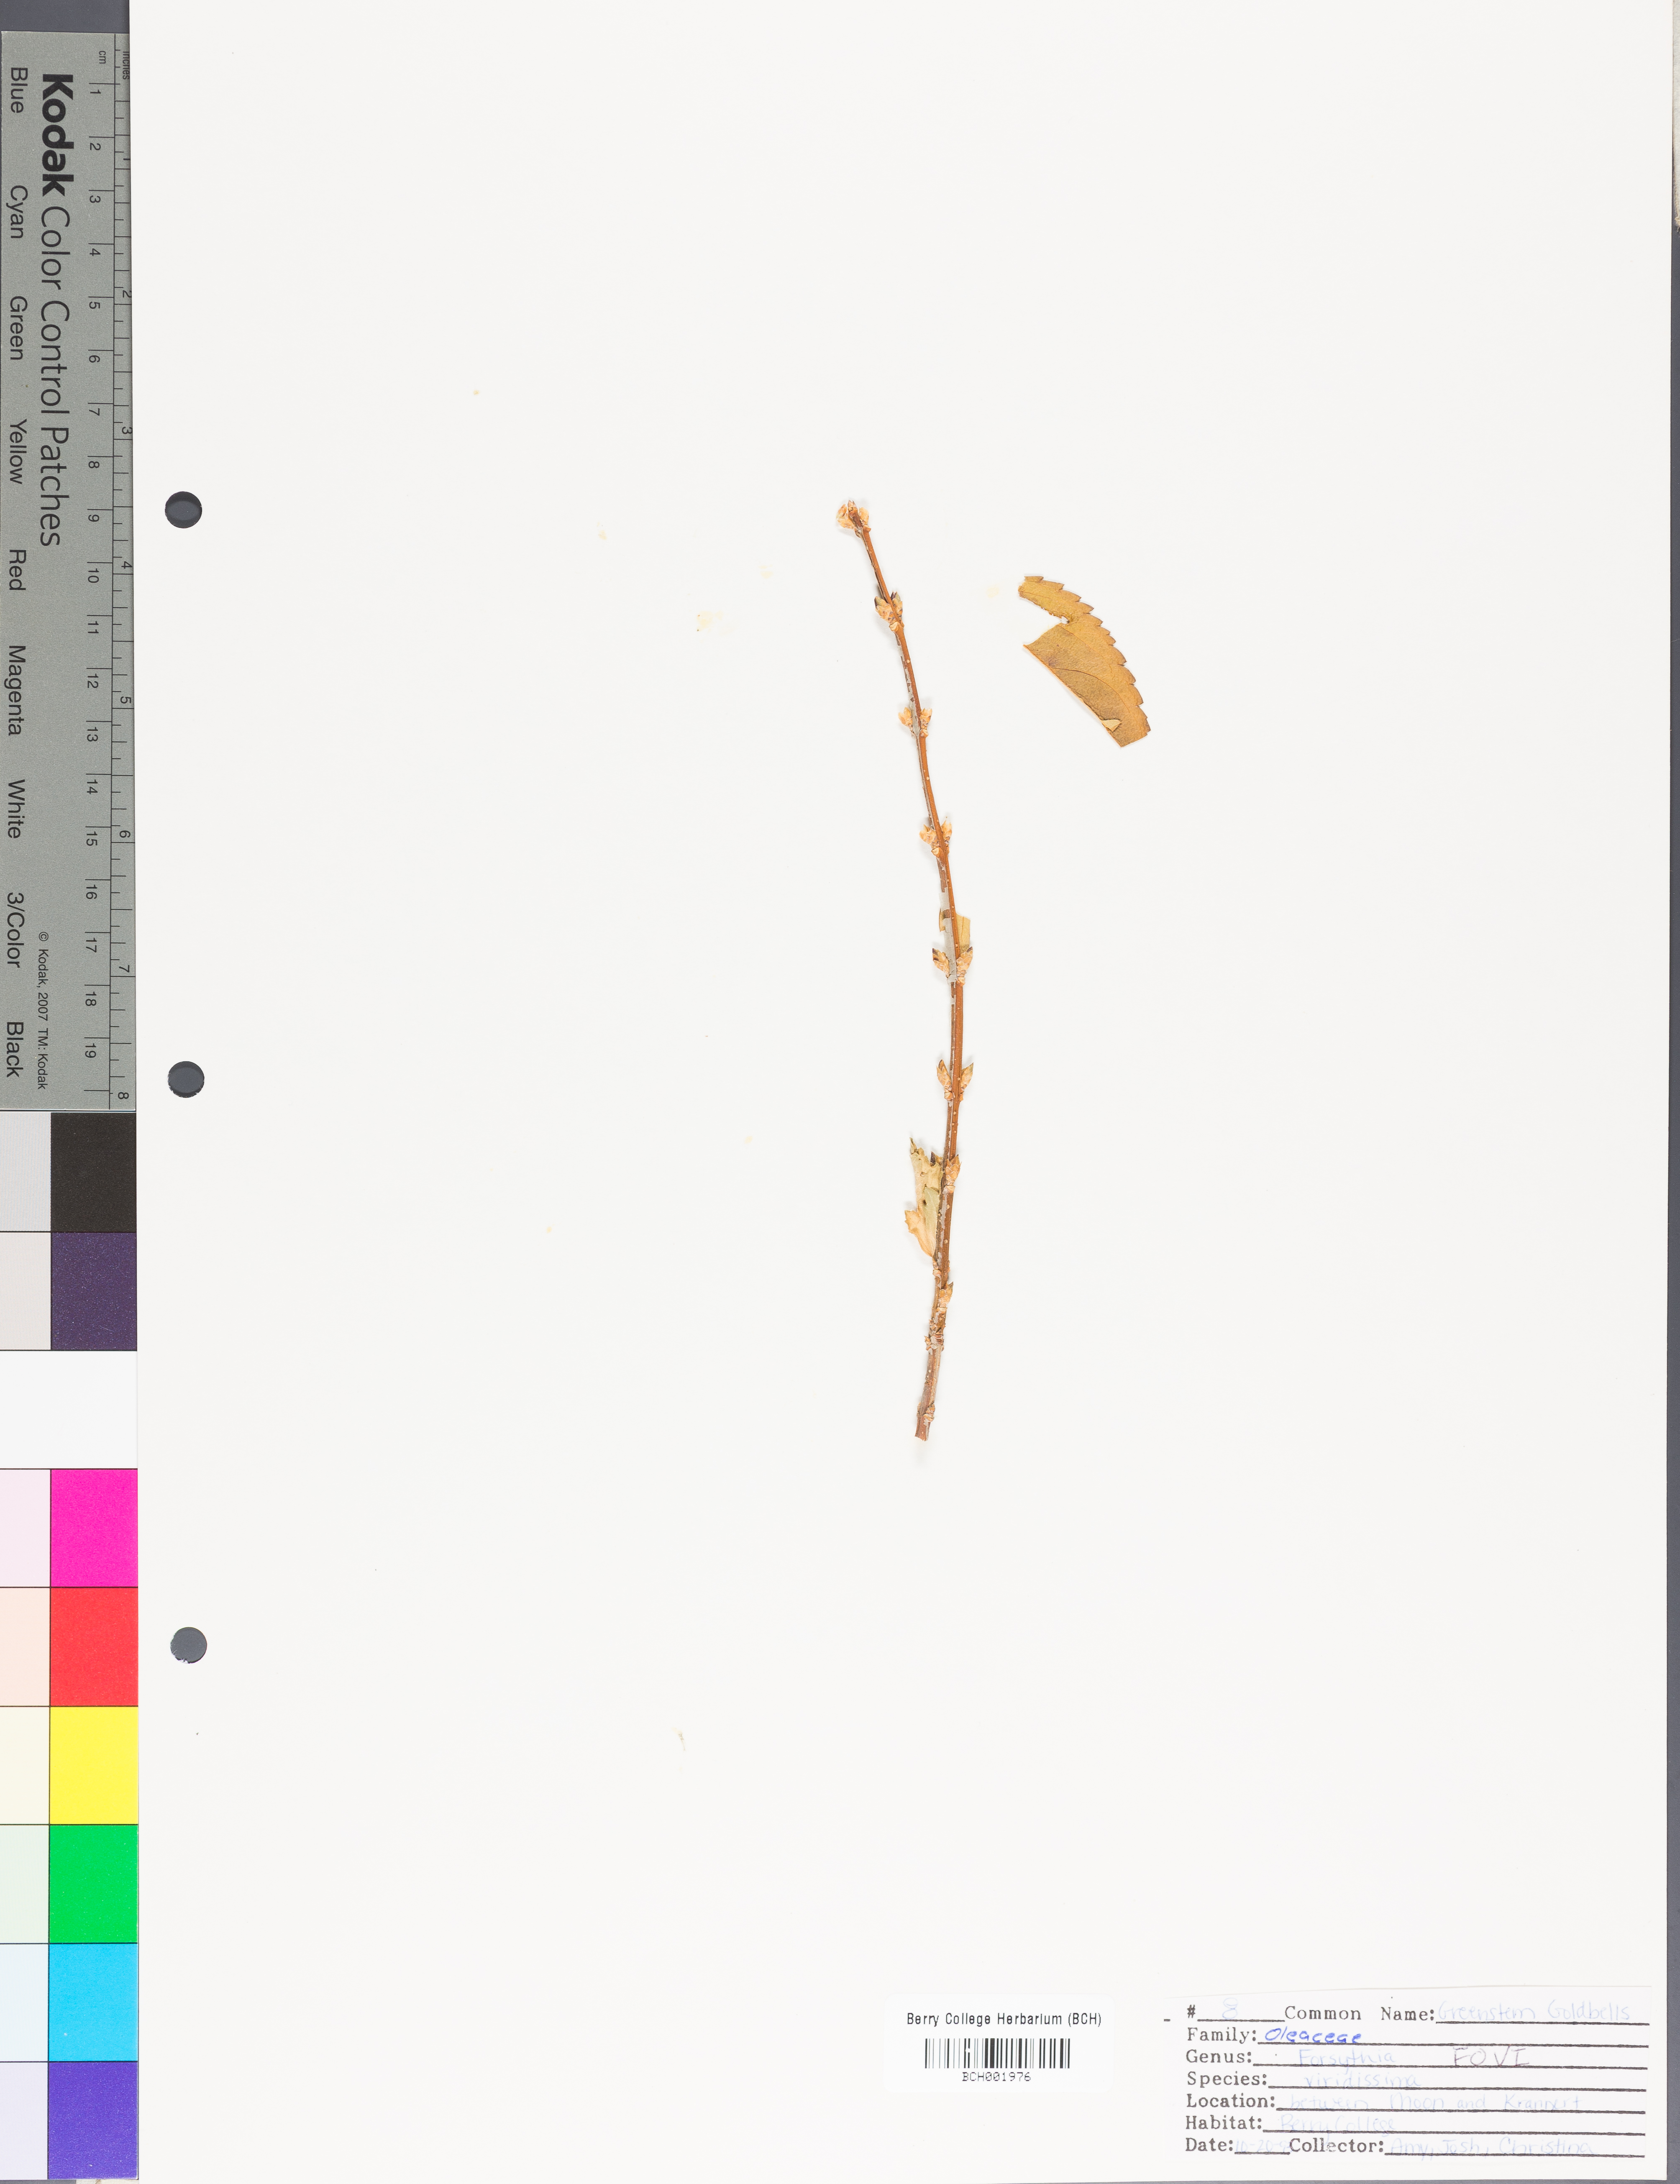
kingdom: Plantae
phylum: Tracheophyta
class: Magnoliopsida
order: Lamiales
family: Oleaceae
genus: Forsythia
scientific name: Forsythia viridissima
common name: Greenstem forsythia
